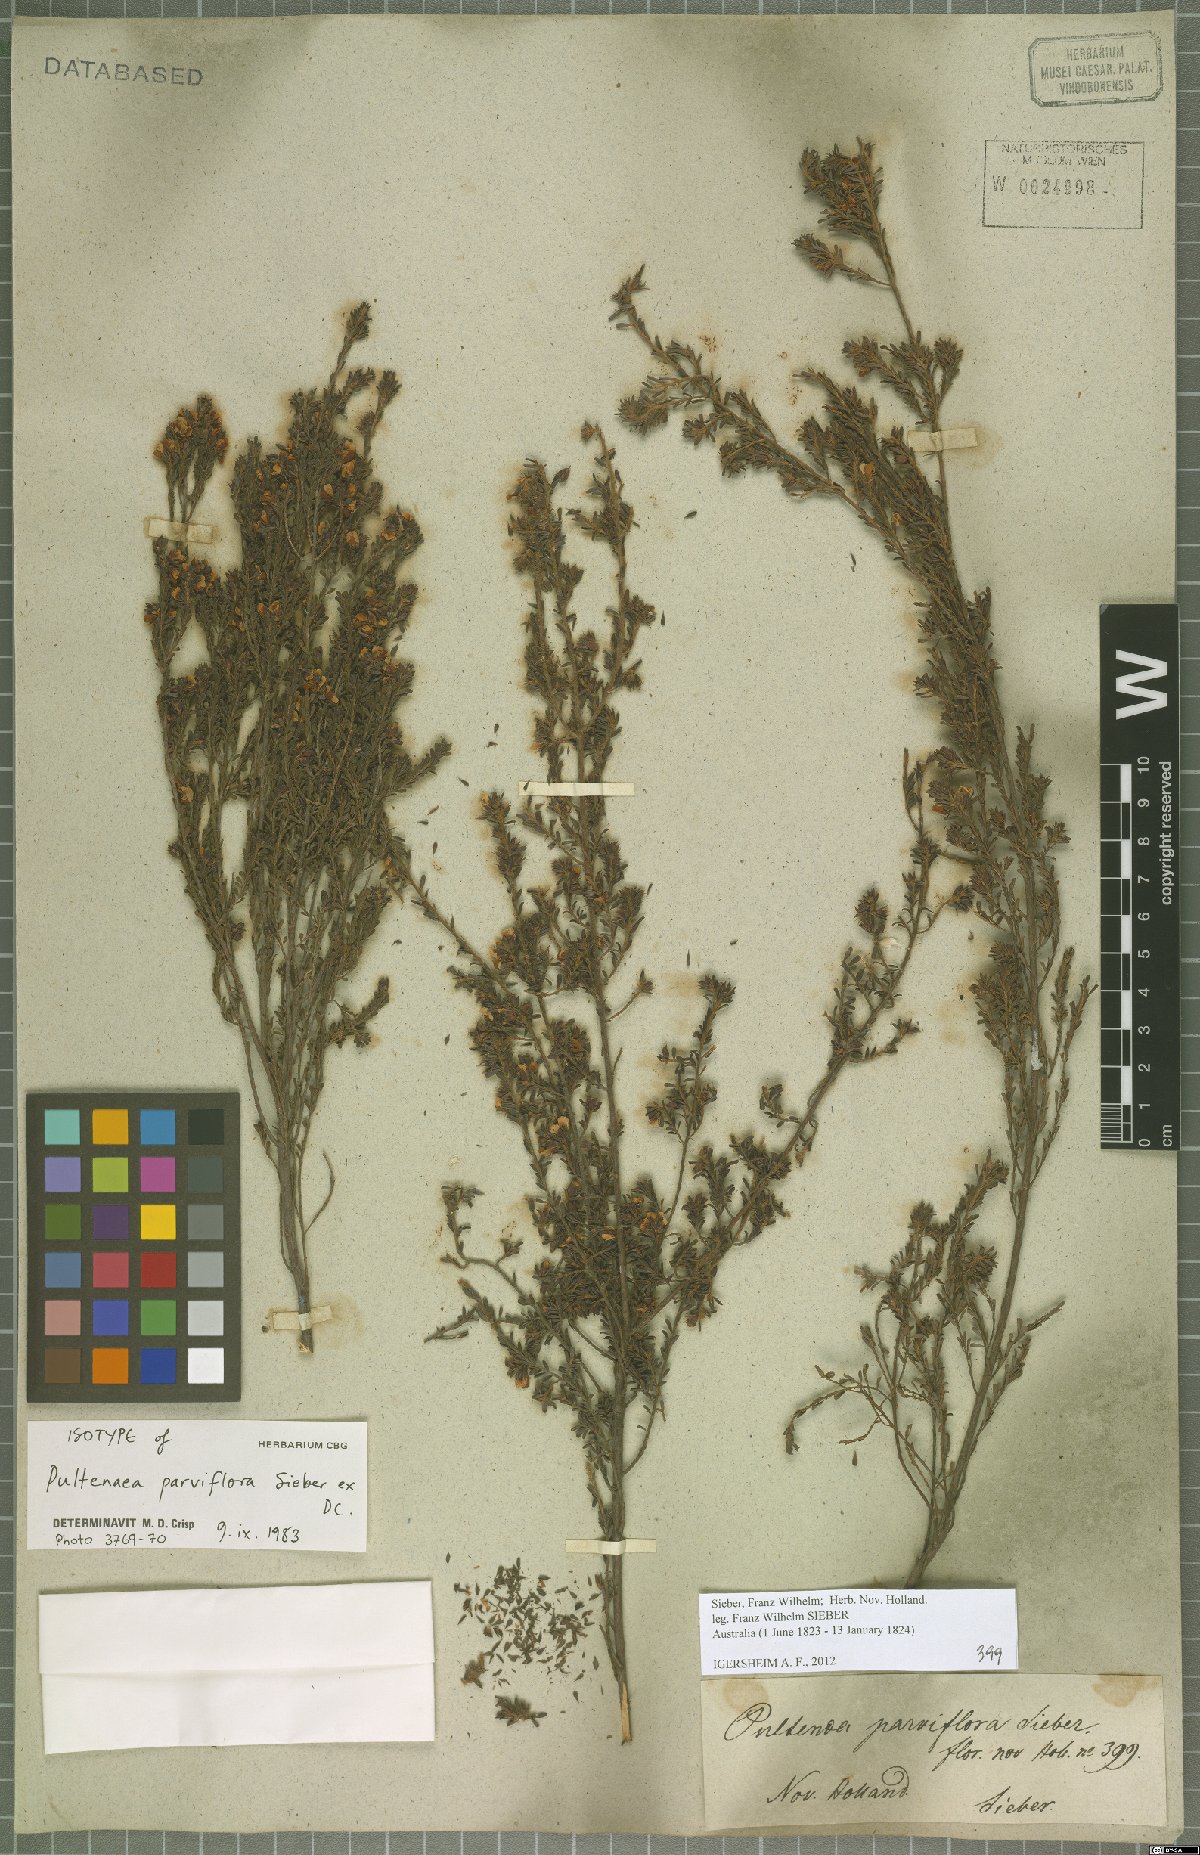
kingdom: Plantae
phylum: Tracheophyta
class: Magnoliopsida
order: Fabales
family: Fabaceae
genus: Pultenaea
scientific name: Pultenaea parviflora
